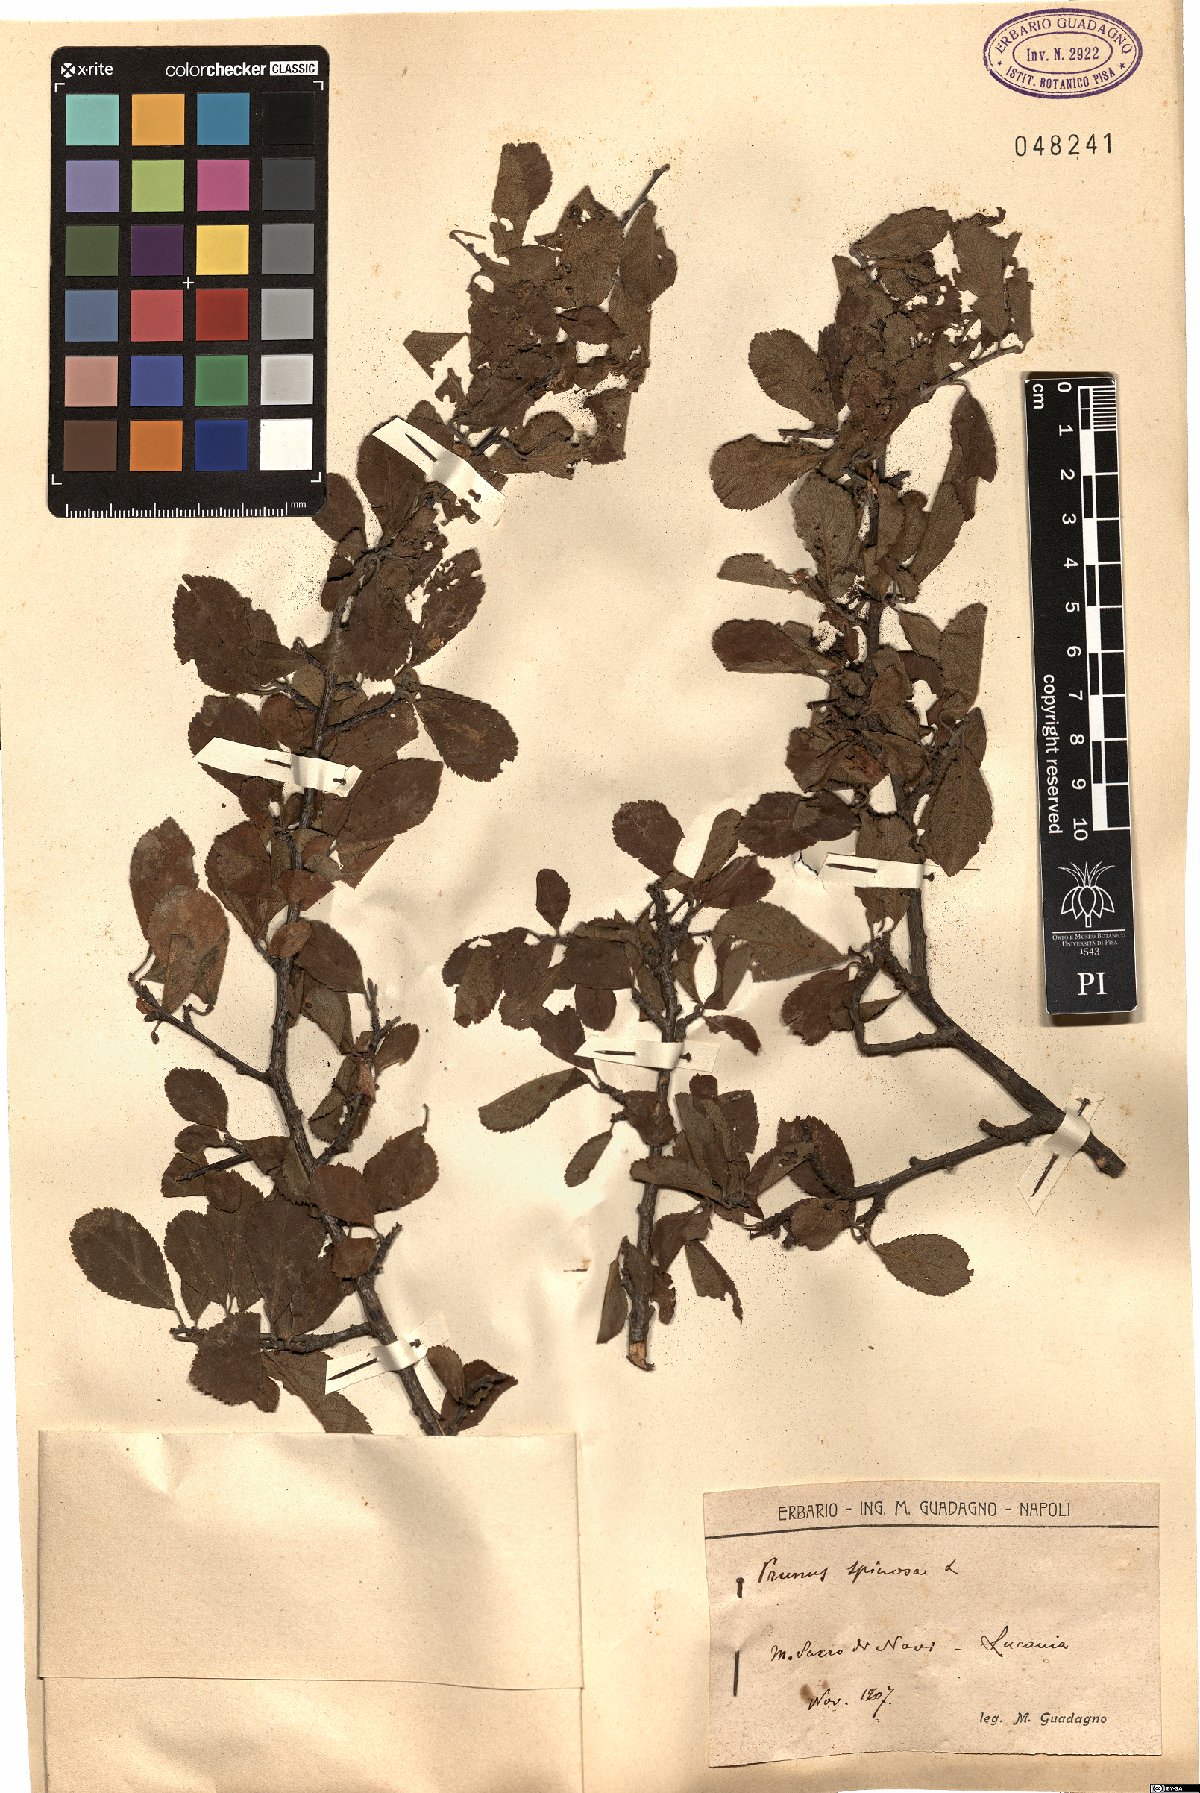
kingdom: Plantae
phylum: Tracheophyta
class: Magnoliopsida
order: Rosales
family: Rosaceae
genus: Prunus
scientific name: Prunus spinosa
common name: Blackthorn
